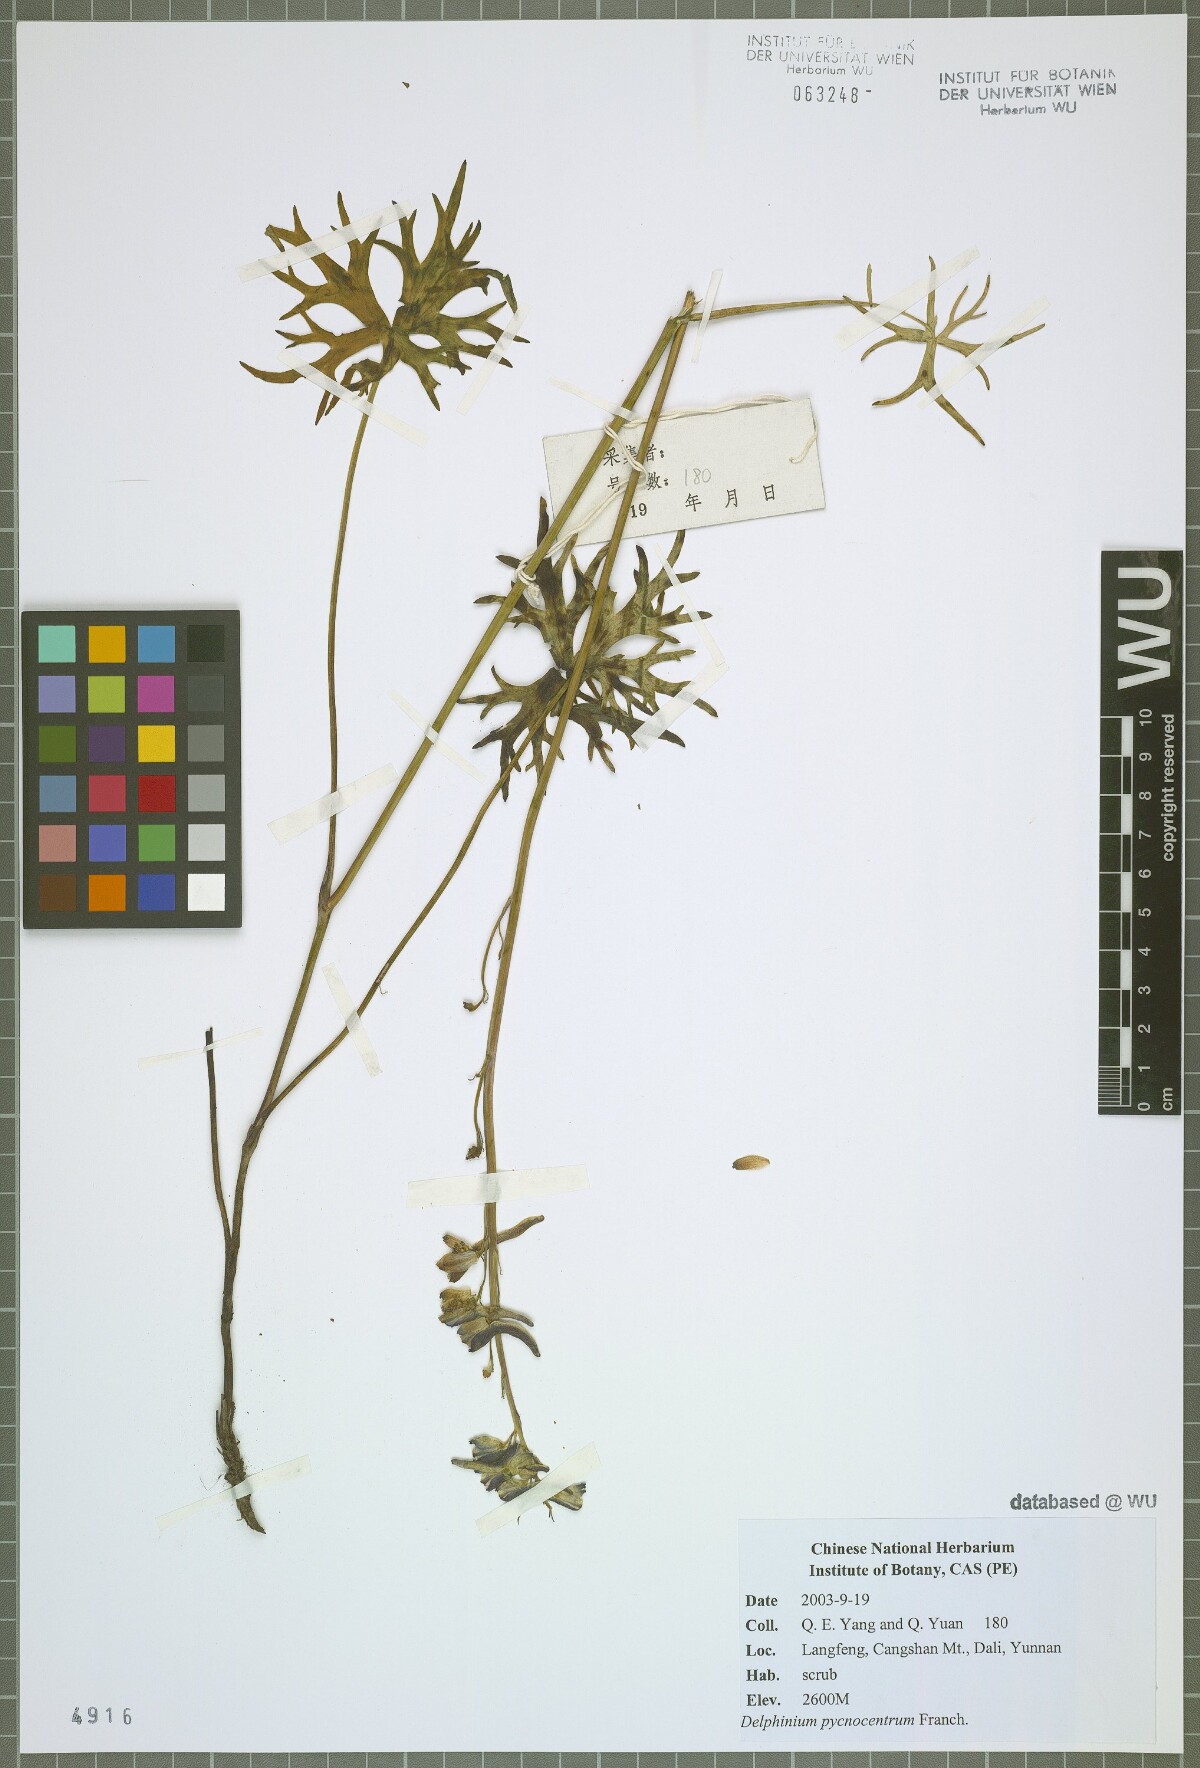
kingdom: Plantae
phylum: Tracheophyta
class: Magnoliopsida
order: Ranunculales
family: Ranunculaceae
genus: Delphinium
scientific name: Delphinium pycnocentrum
